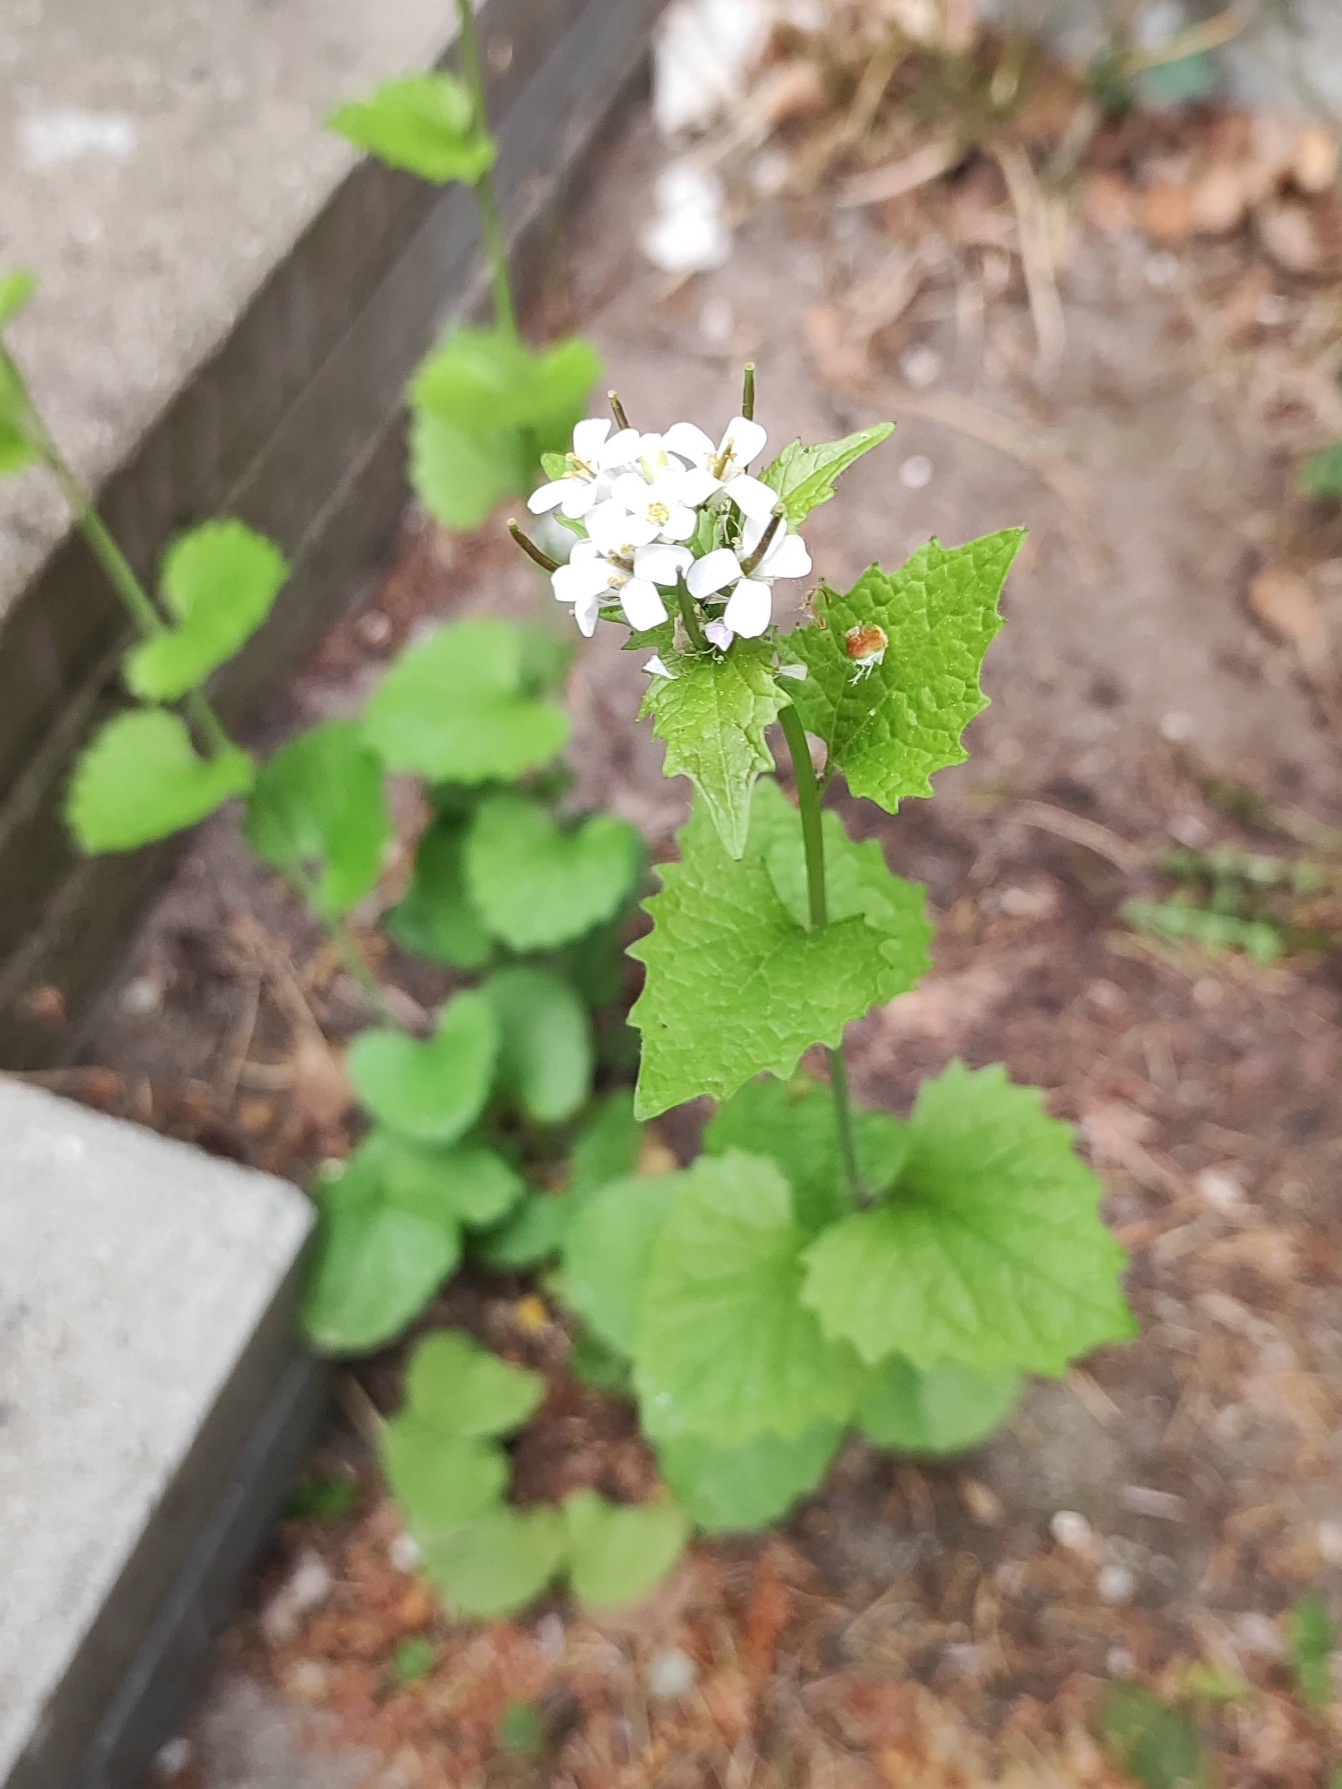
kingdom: Plantae
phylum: Tracheophyta
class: Magnoliopsida
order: Brassicales
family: Brassicaceae
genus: Alliaria
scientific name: Alliaria petiolata
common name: Løgkarse
